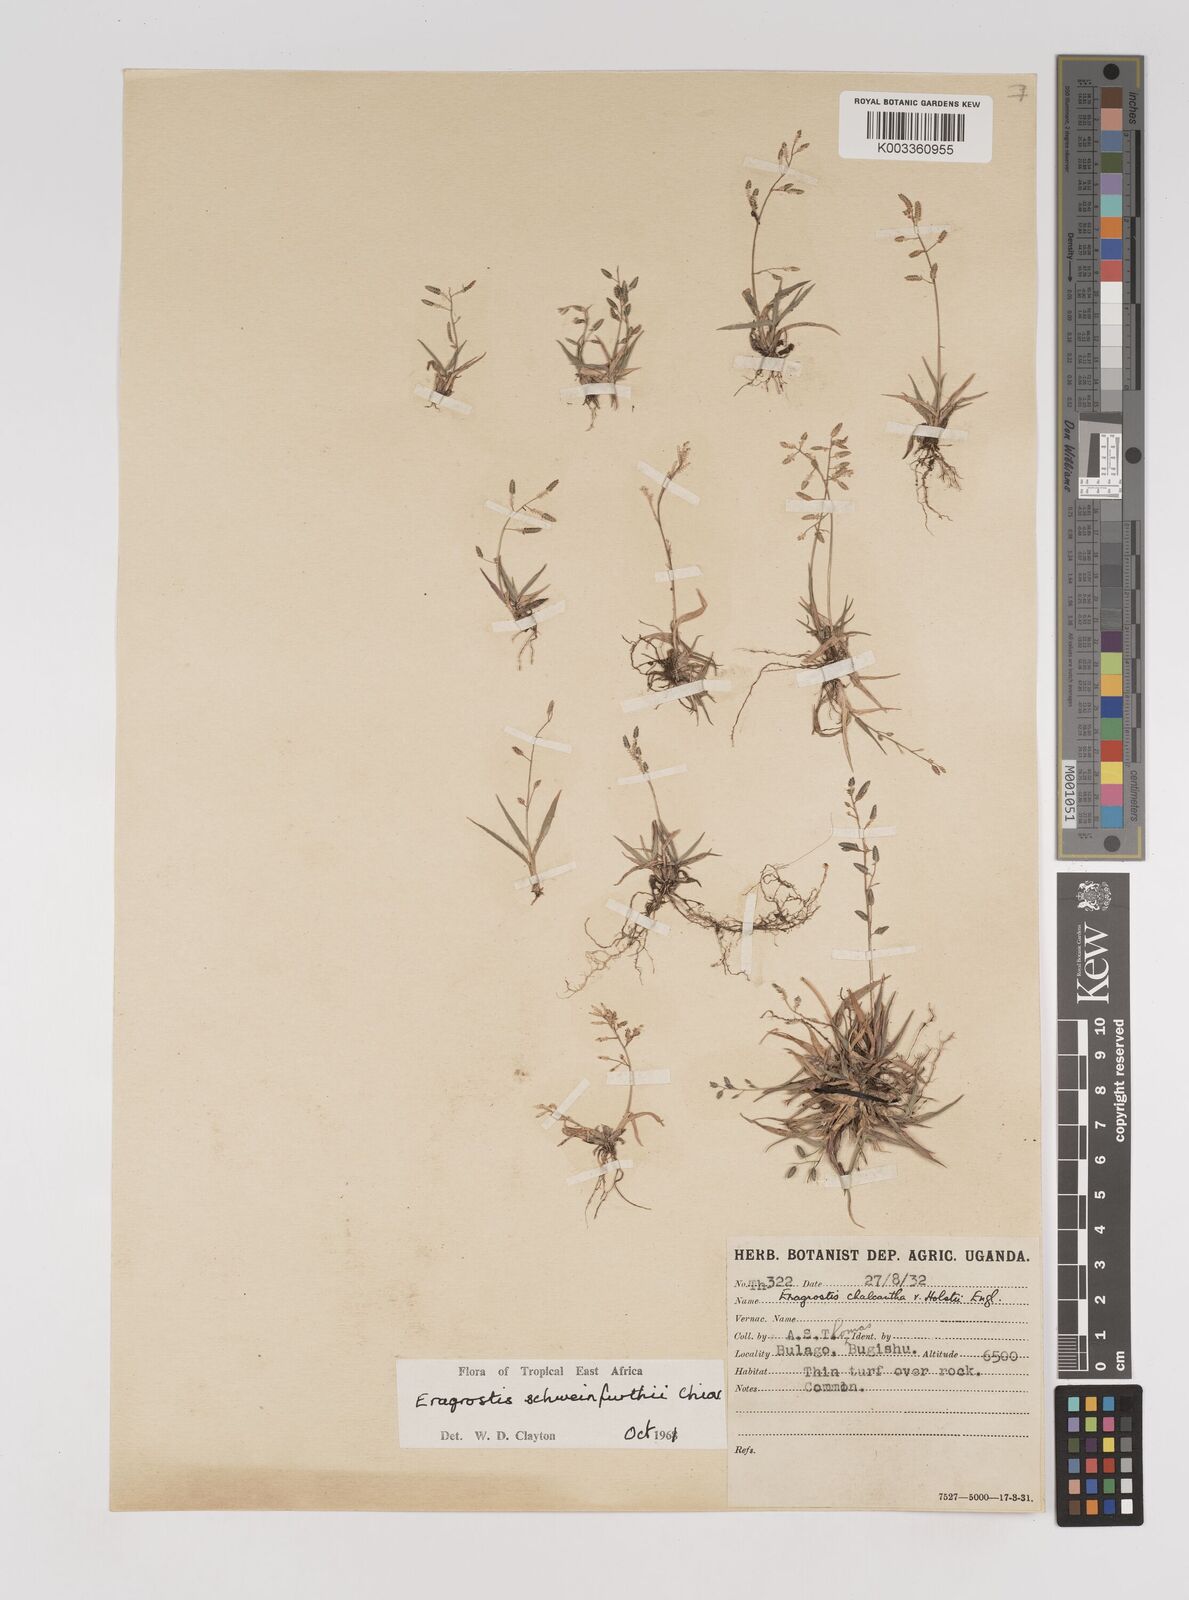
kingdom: Plantae
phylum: Tracheophyta
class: Liliopsida
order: Poales
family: Poaceae
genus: Eragrostis
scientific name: Eragrostis schweinfurthii
